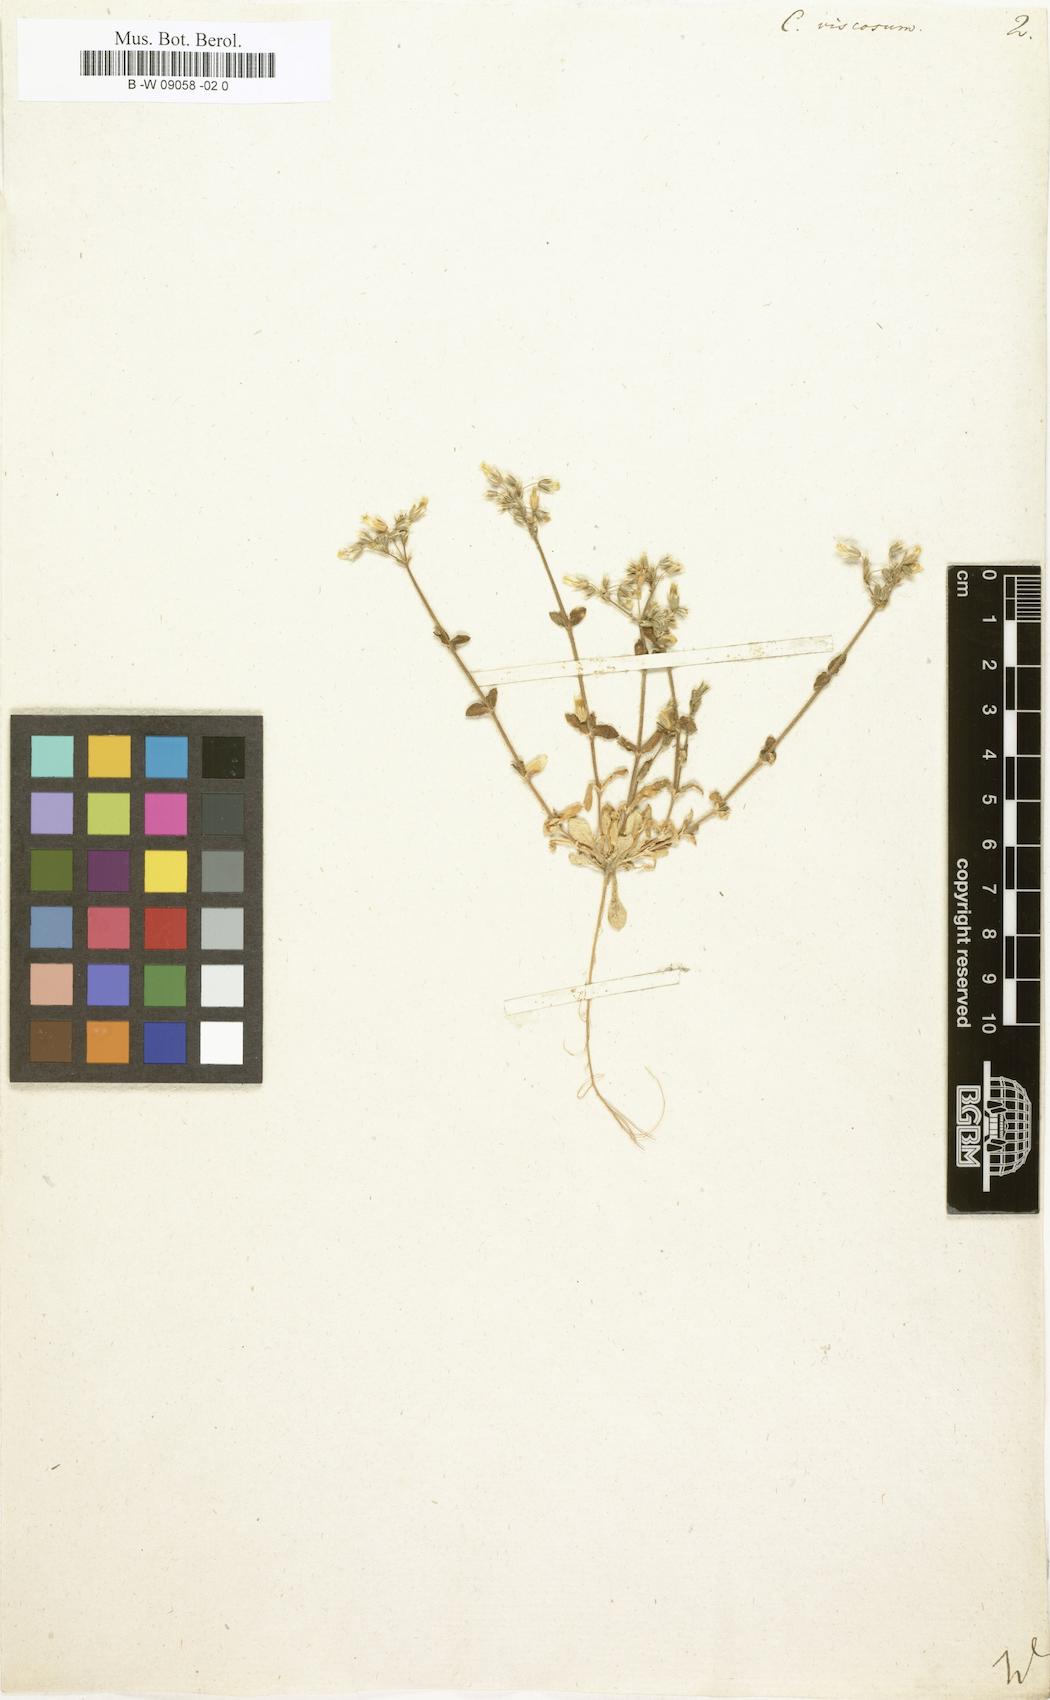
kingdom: Plantae
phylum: Tracheophyta
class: Magnoliopsida
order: Caryophyllales
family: Caryophyllaceae
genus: Cerastium
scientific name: Cerastium holosteoides
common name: Big chickweed
